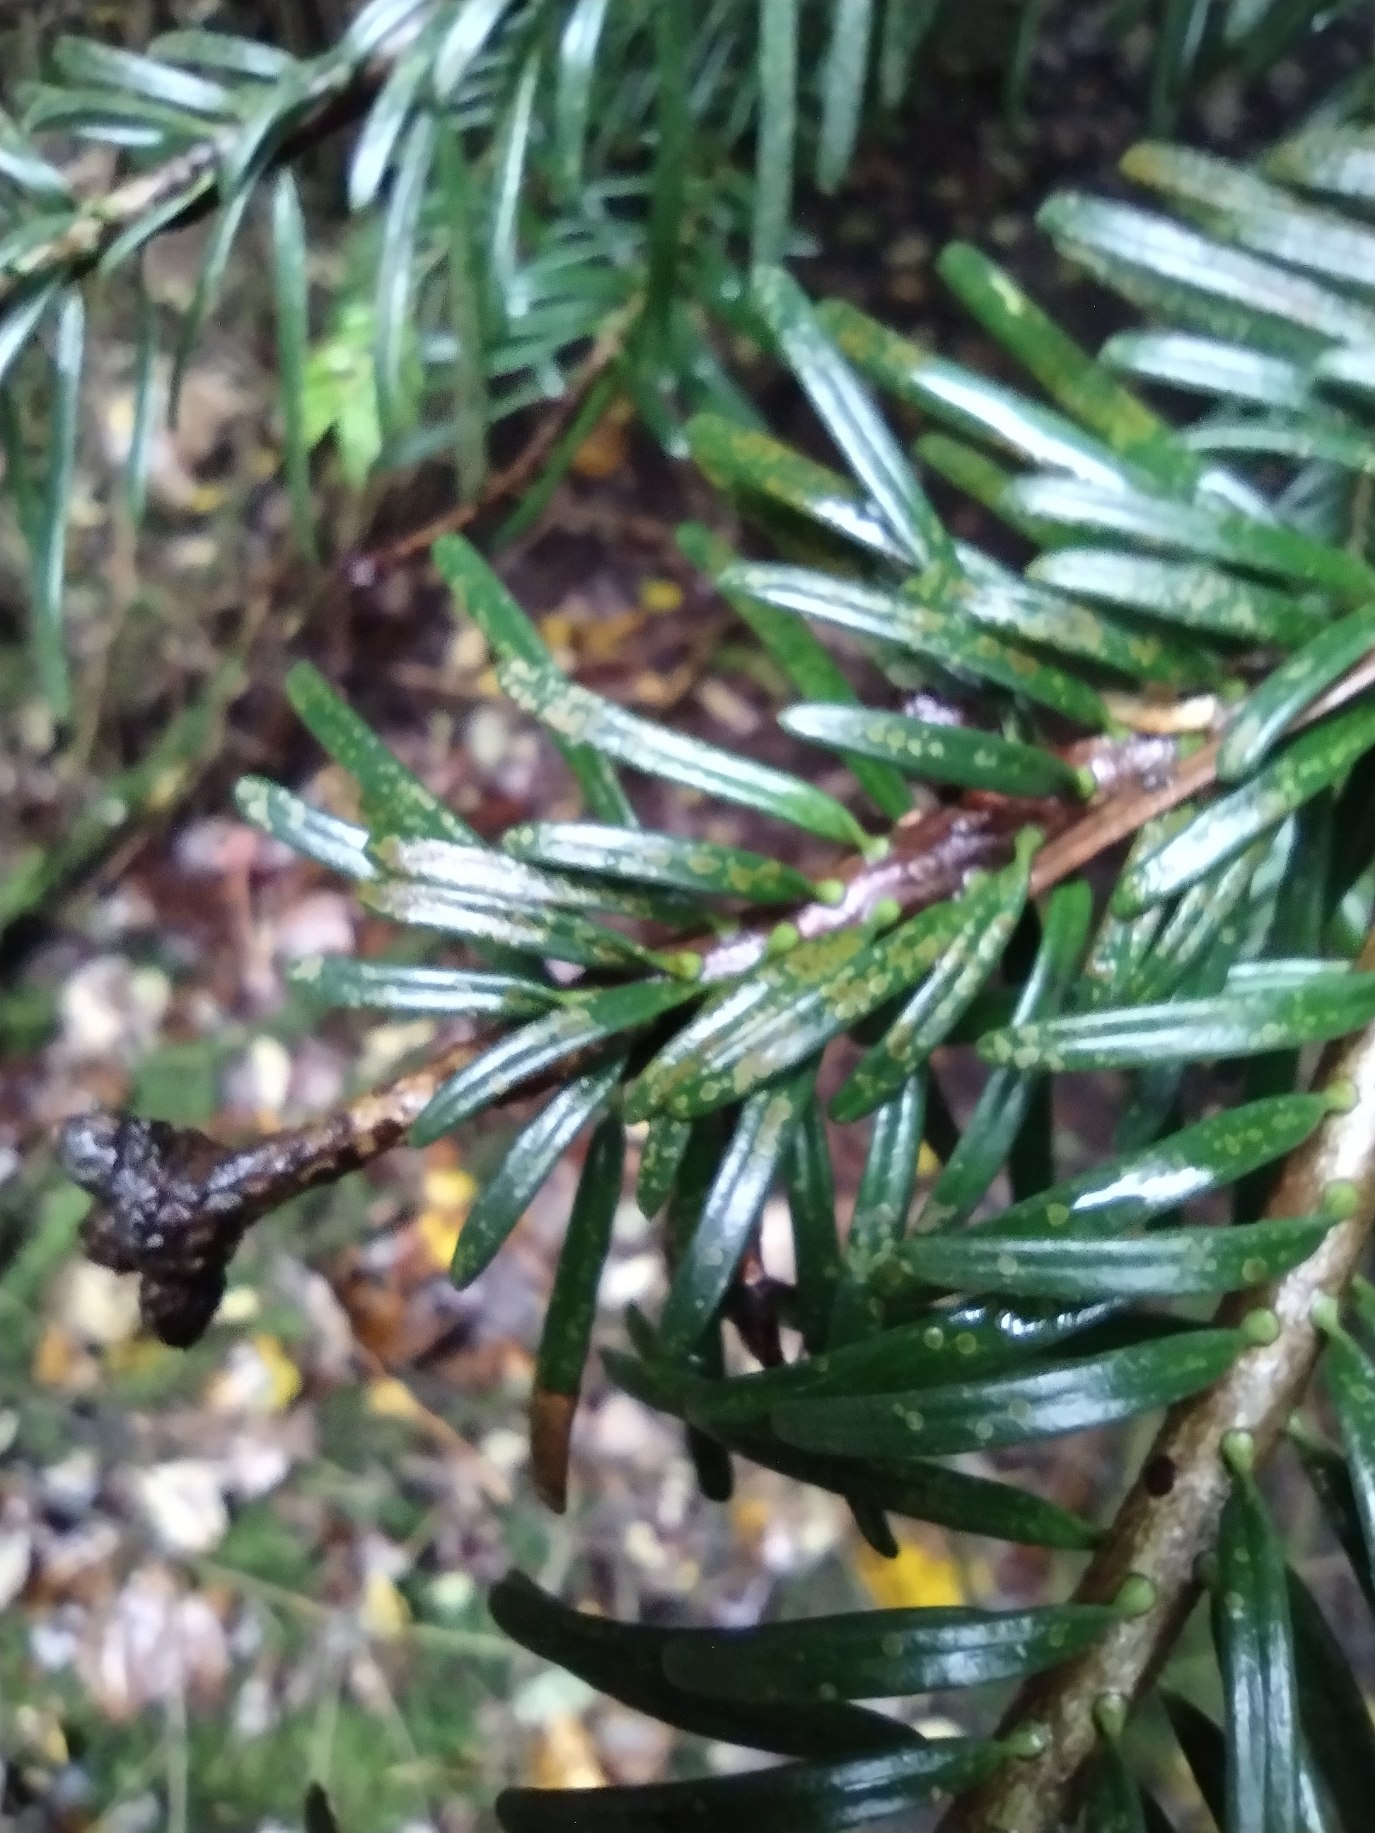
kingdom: Plantae
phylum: Tracheophyta
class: Pinopsida
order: Pinales
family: Pinaceae
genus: Abies
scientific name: Abies alba
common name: Almindelig ædelgran
